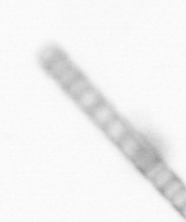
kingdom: Chromista
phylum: Ochrophyta
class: Bacillariophyceae
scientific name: Bacillariophyceae
